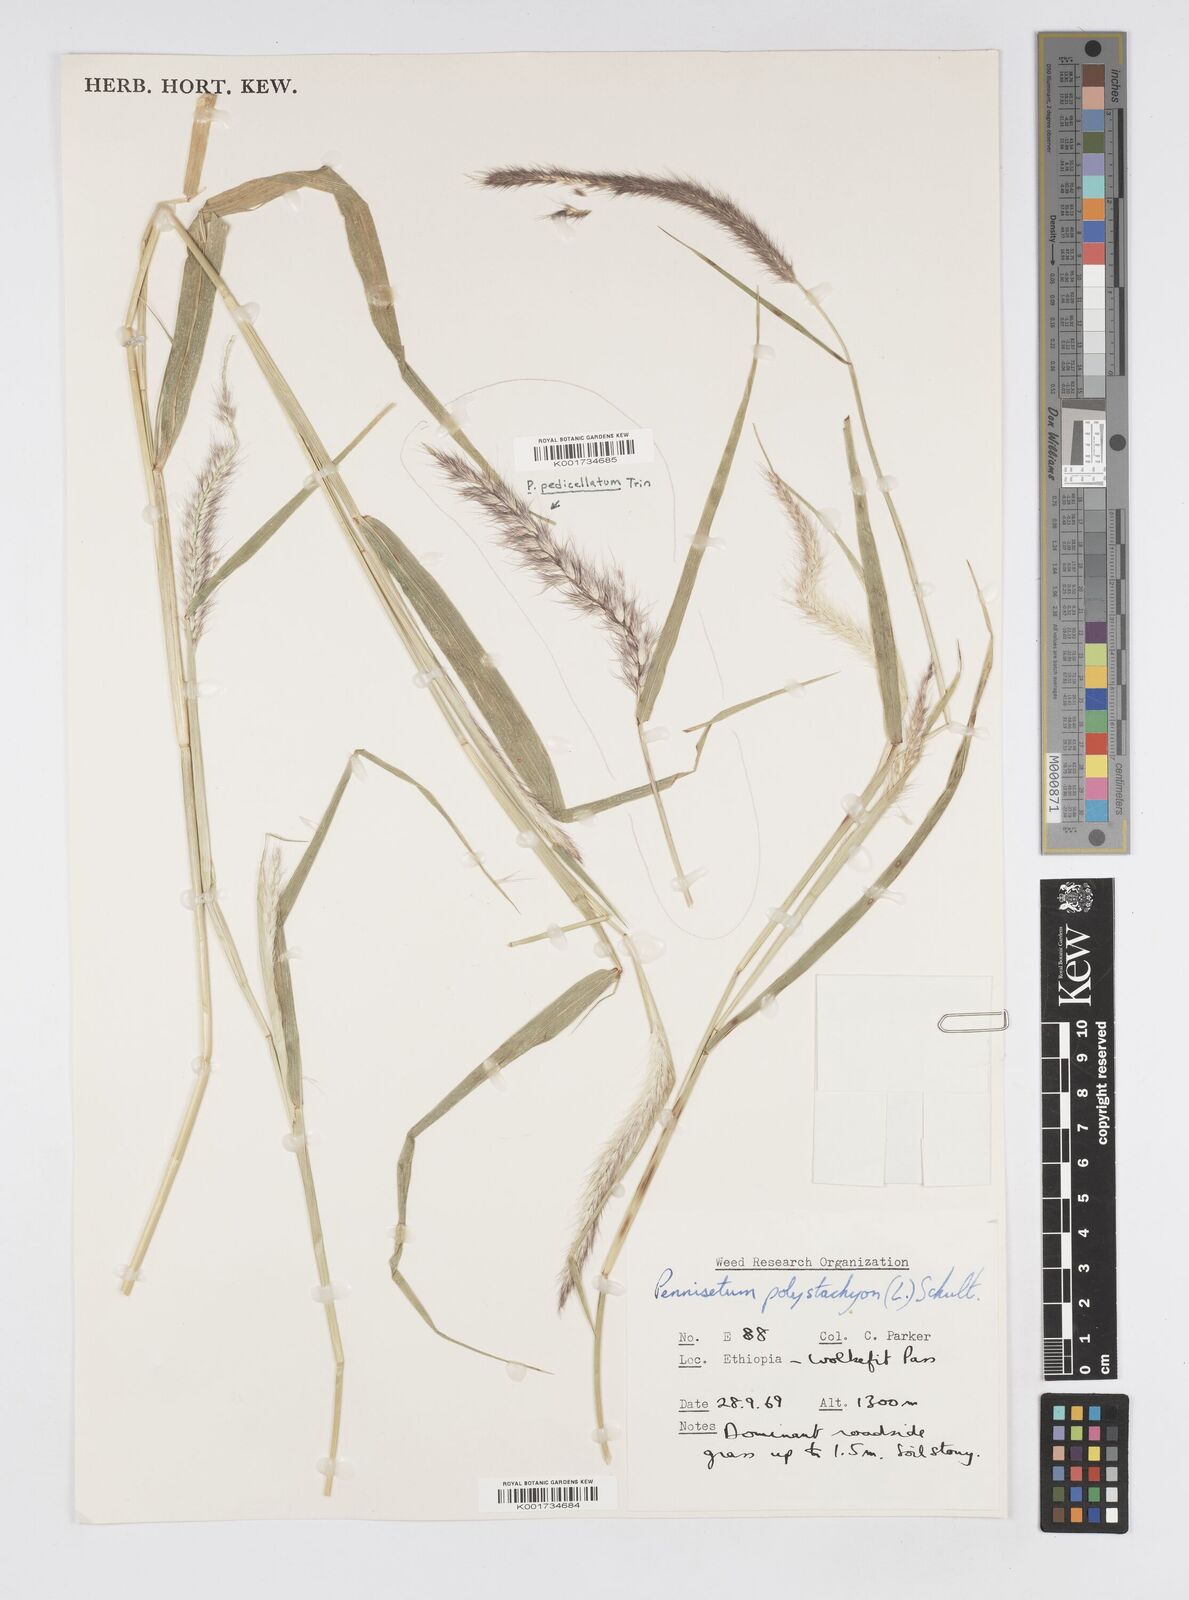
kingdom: Plantae
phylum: Tracheophyta
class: Liliopsida
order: Poales
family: Poaceae
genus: Setaria
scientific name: Setaria parviflora
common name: Knotroot bristle-grass
